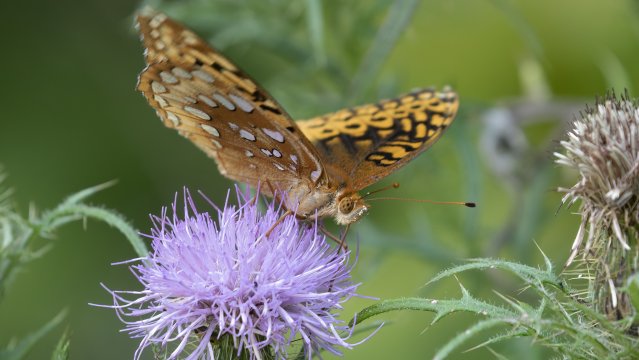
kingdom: Animalia
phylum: Arthropoda
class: Insecta
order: Lepidoptera
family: Nymphalidae
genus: Speyeria
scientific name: Speyeria cybele
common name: Great Spangled Fritillary
